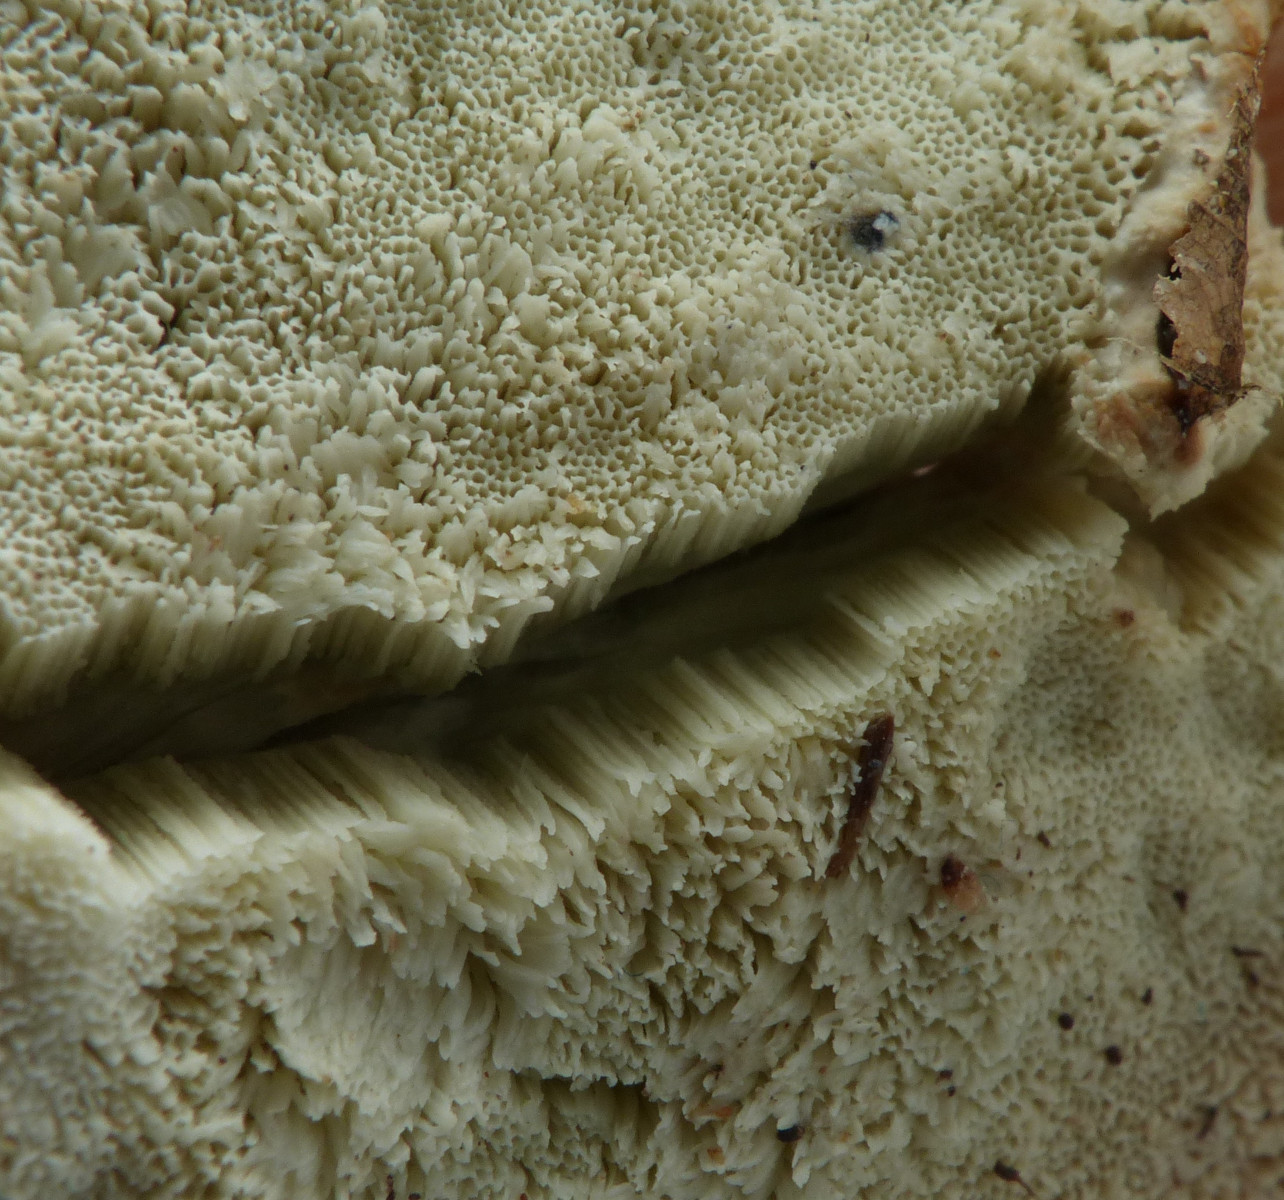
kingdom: Fungi
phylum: Basidiomycota
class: Agaricomycetes
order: Polyporales
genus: Calcipostia
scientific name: Calcipostia guttulata
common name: dråbe-kødporesvamp
